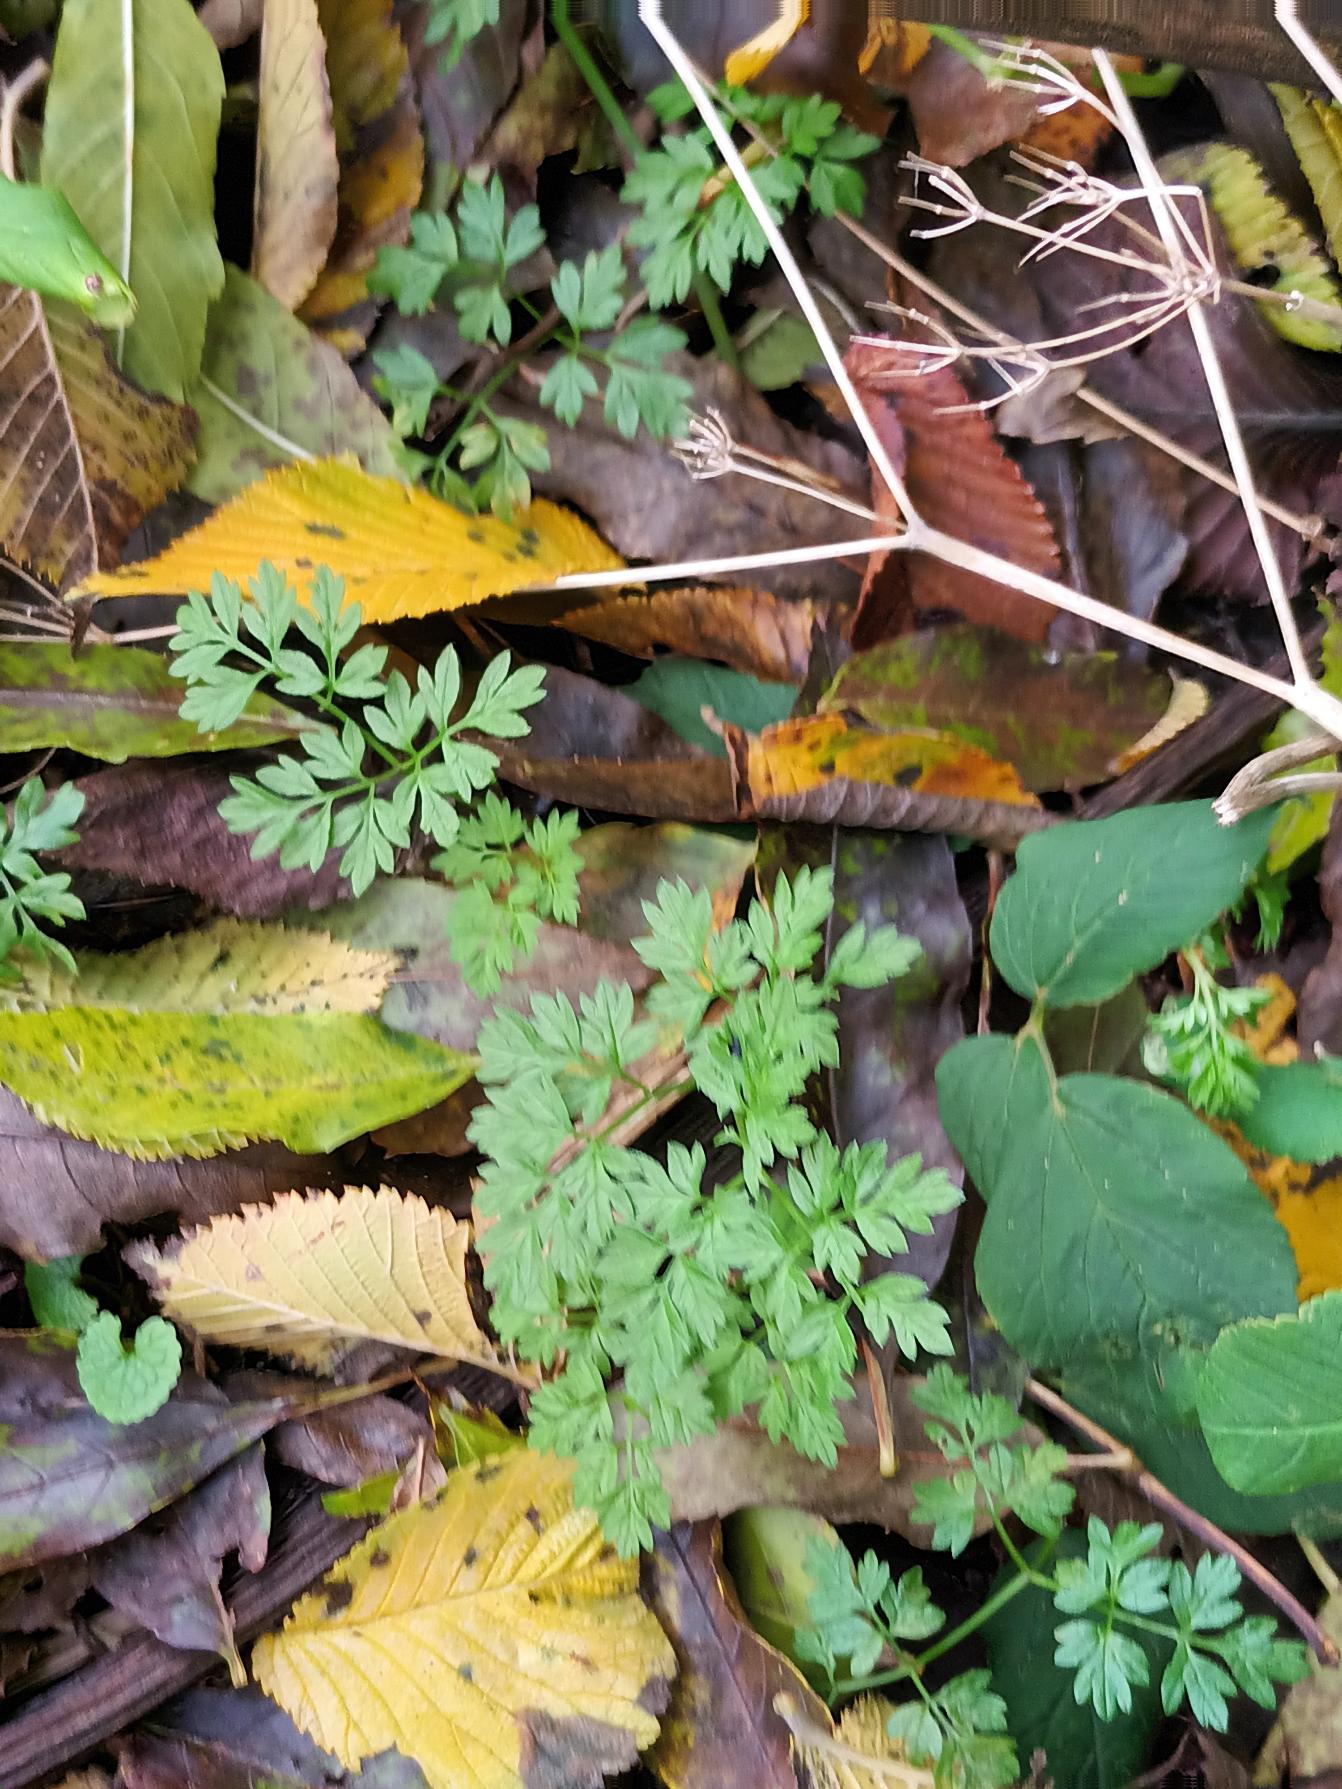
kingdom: Plantae
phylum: Tracheophyta
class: Magnoliopsida
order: Apiales
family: Apiaceae
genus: Chaerophyllum
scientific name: Chaerophyllum temulum
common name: Almindelig hulsvøb
